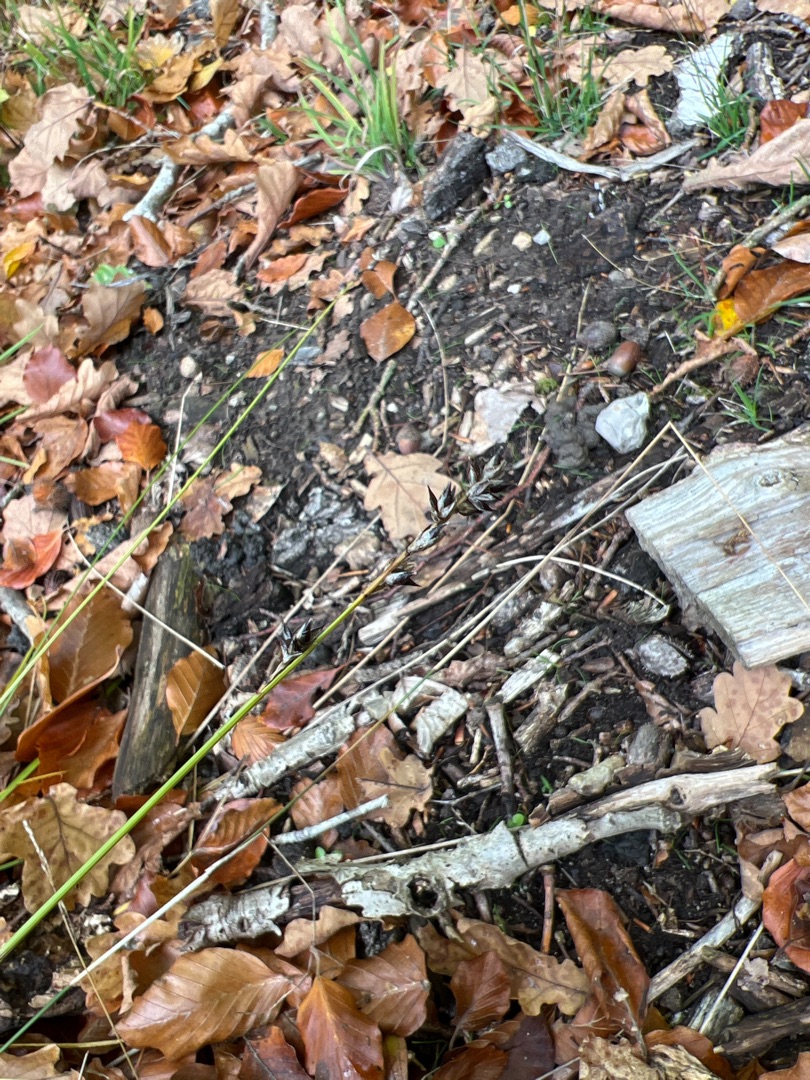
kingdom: Plantae
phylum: Tracheophyta
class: Liliopsida
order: Poales
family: Cyperaceae
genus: Carex
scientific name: Carex leersii
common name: Mellembrudt star (underart)
